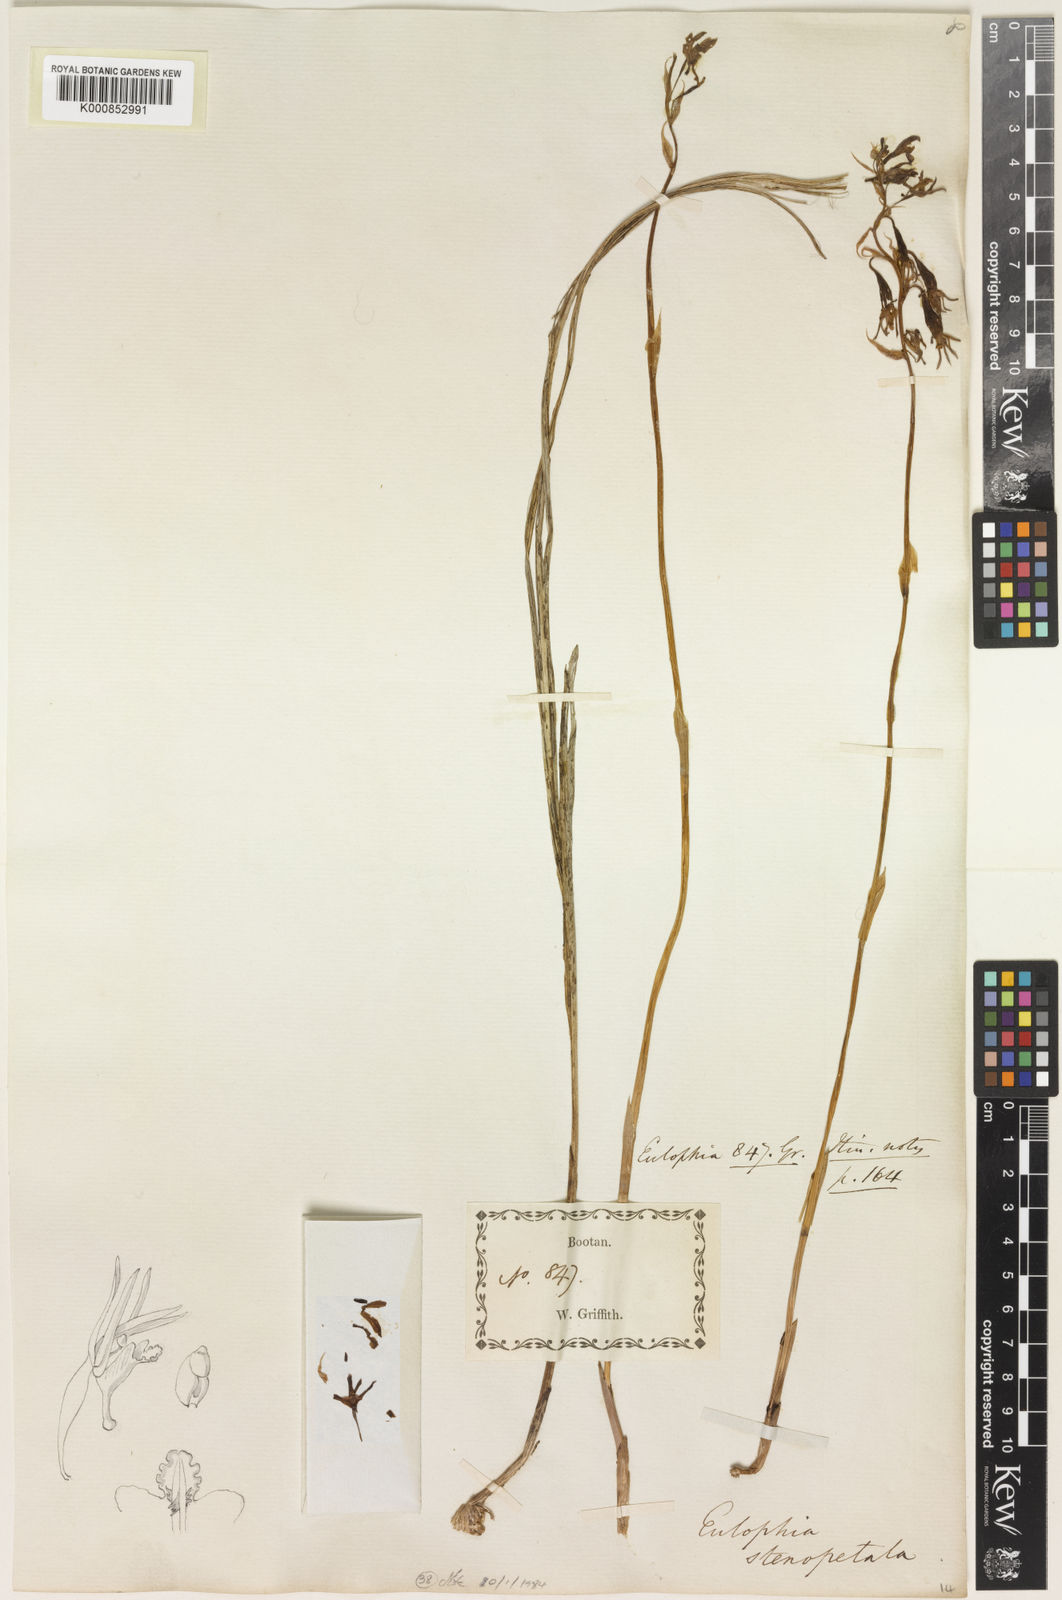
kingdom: Plantae
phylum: Tracheophyta
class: Liliopsida
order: Asparagales
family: Orchidaceae
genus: Eulophia
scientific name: Eulophia stenopetala
